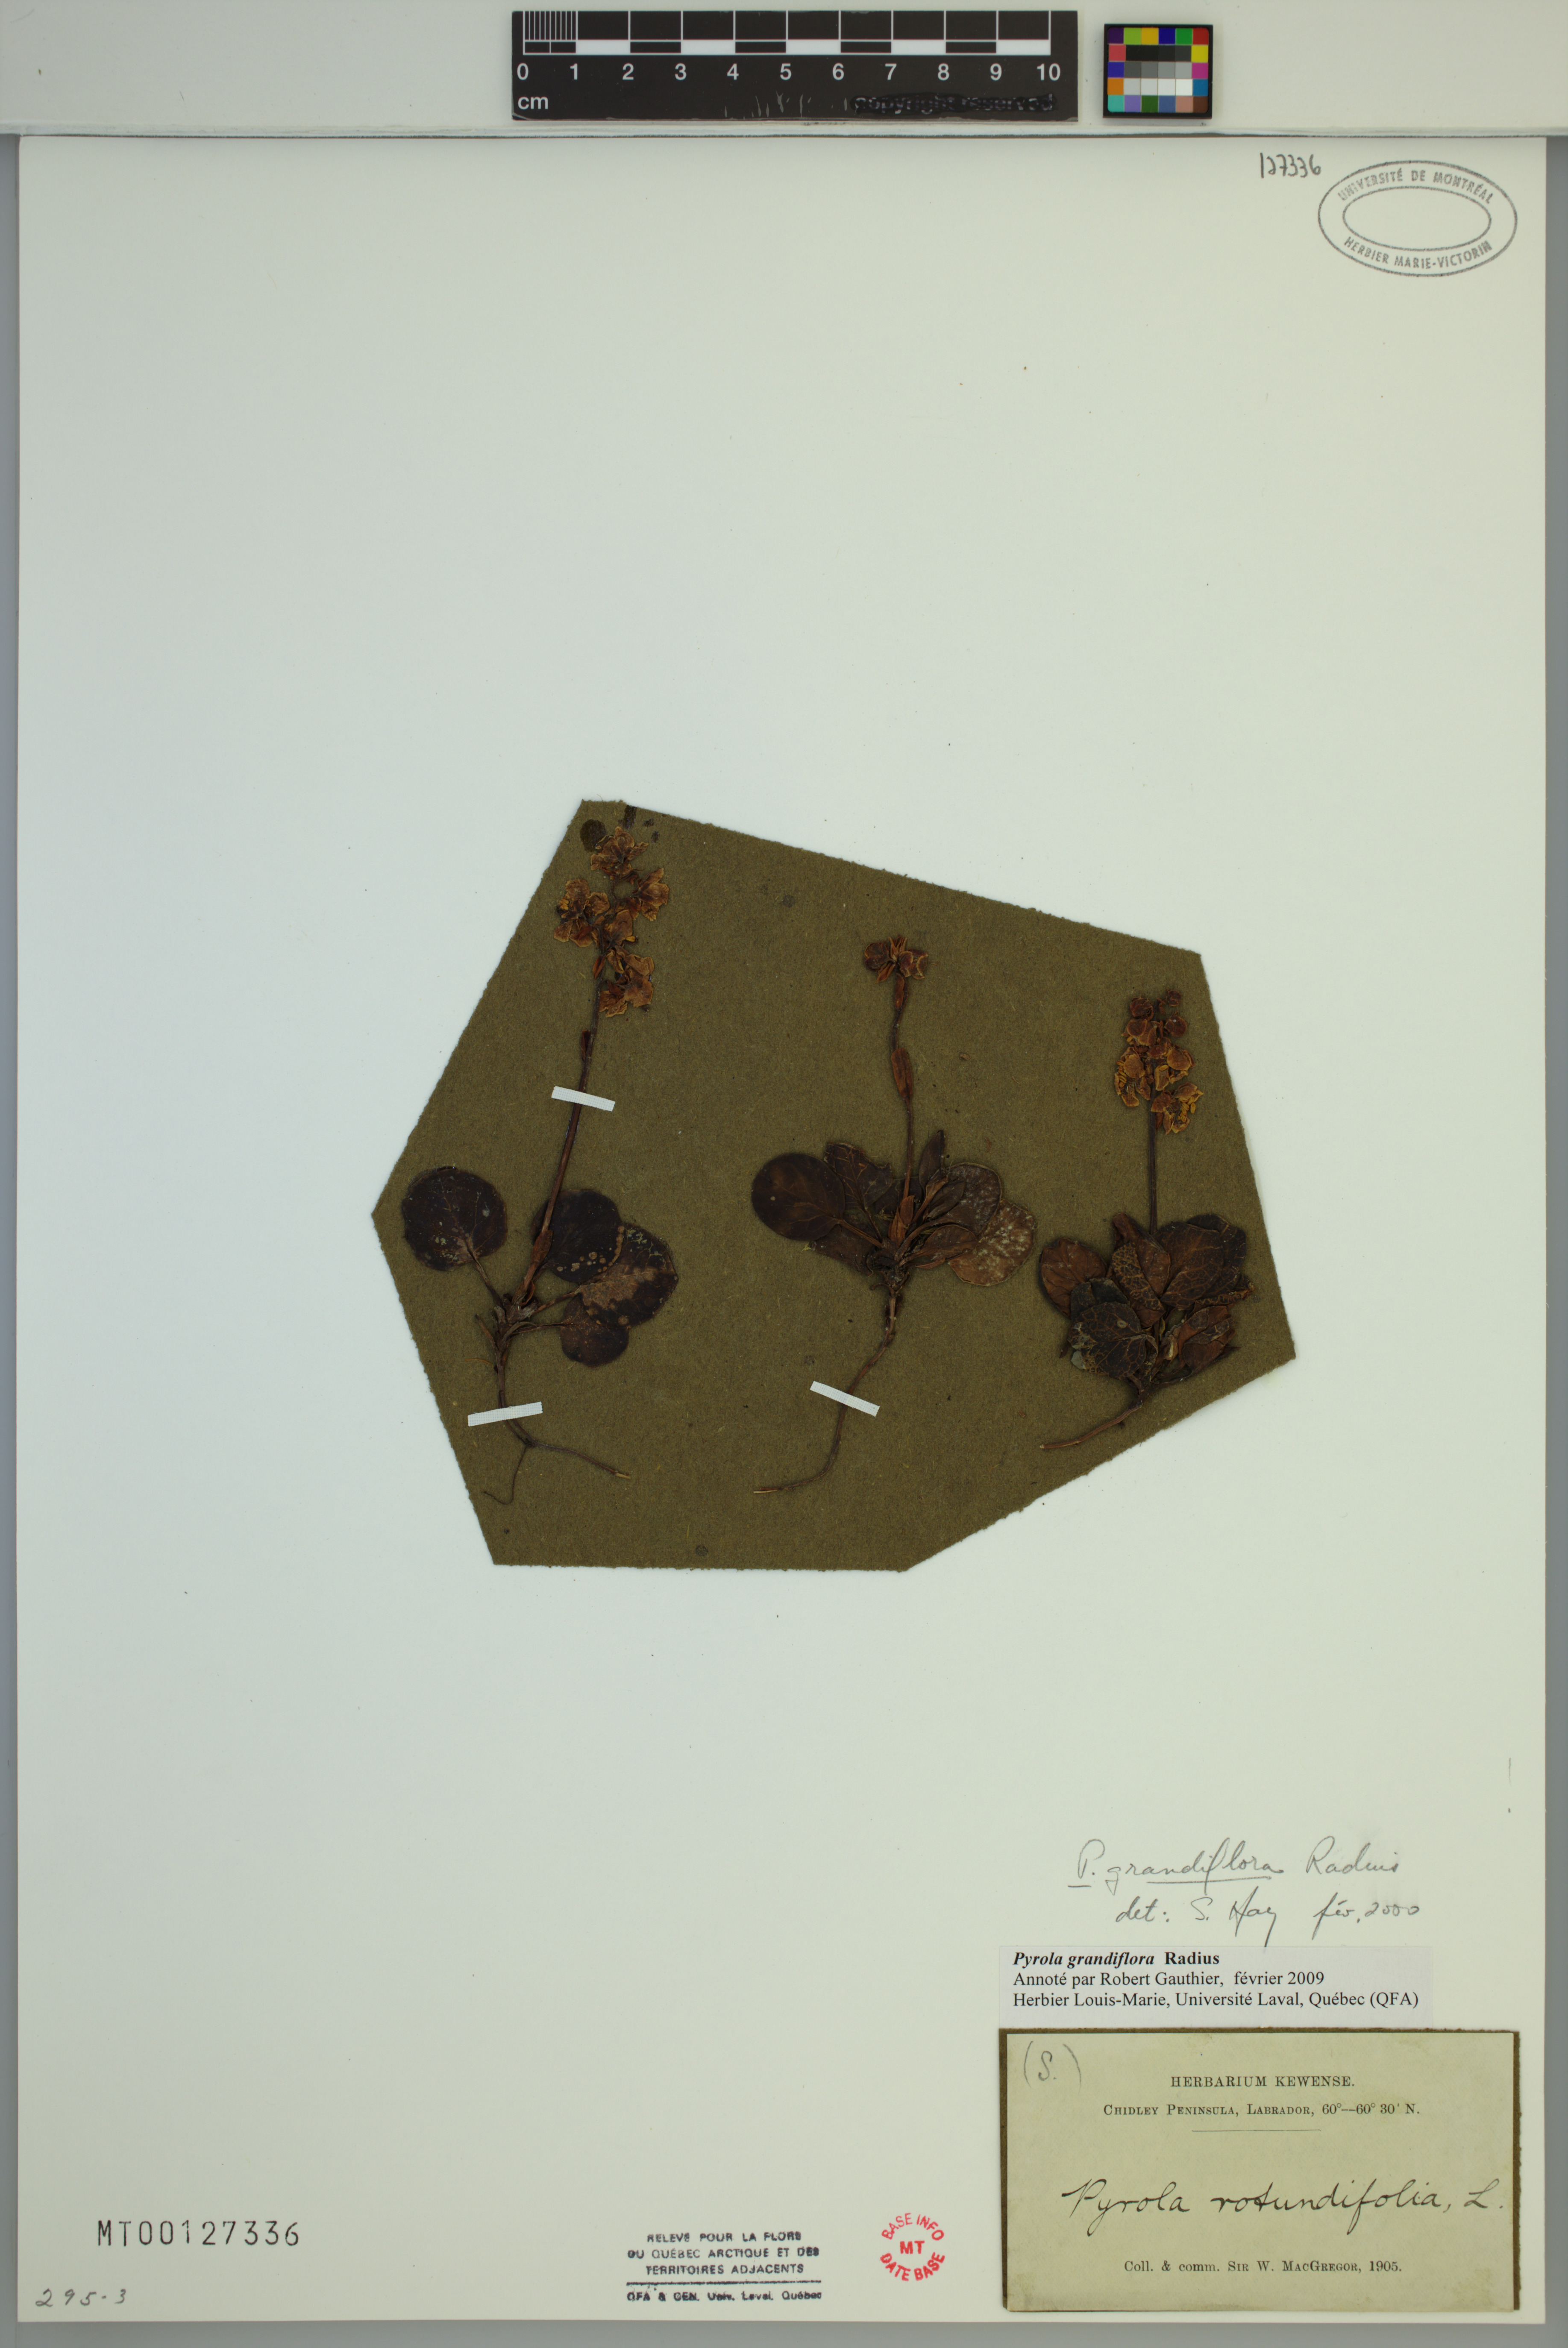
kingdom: Plantae
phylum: Tracheophyta
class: Magnoliopsida
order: Ericales
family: Ericaceae
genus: Pyrola
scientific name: Pyrola grandiflora
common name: Arctic pyrola
